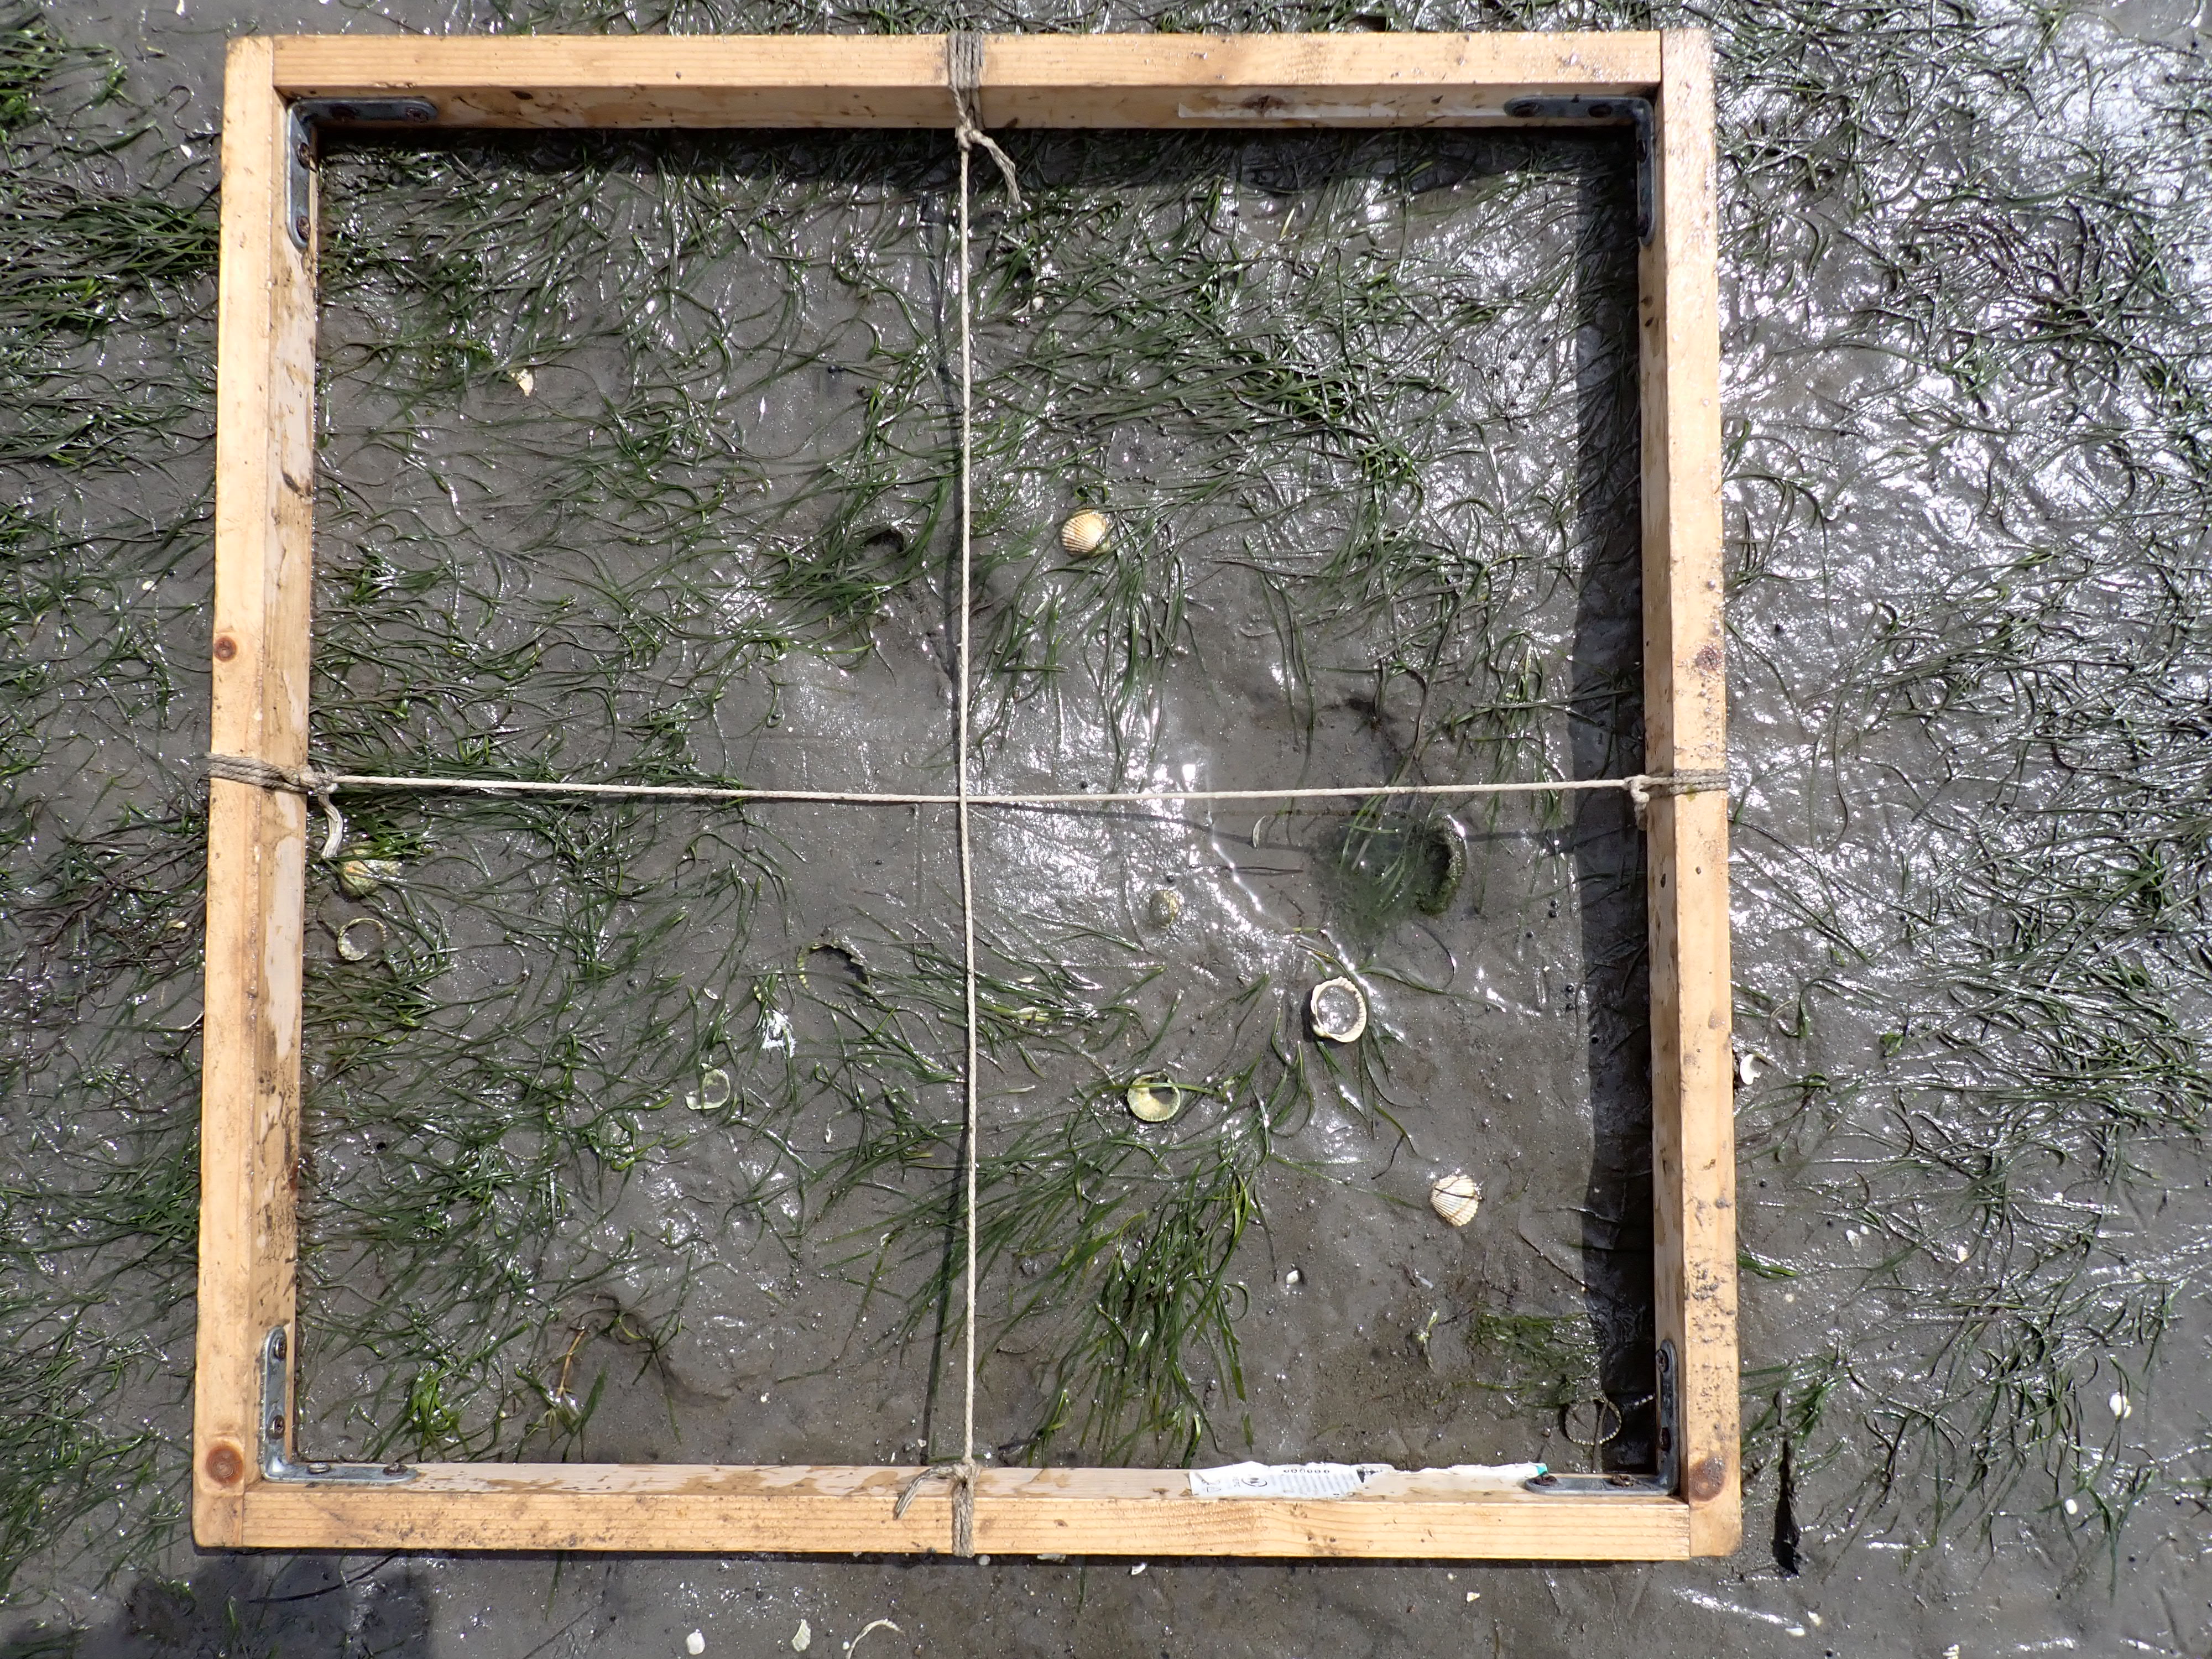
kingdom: Plantae
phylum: Tracheophyta
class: Liliopsida
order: Alismatales
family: Zosteraceae
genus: Zostera
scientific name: Zostera noltii
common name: Dwarf eelgrass
